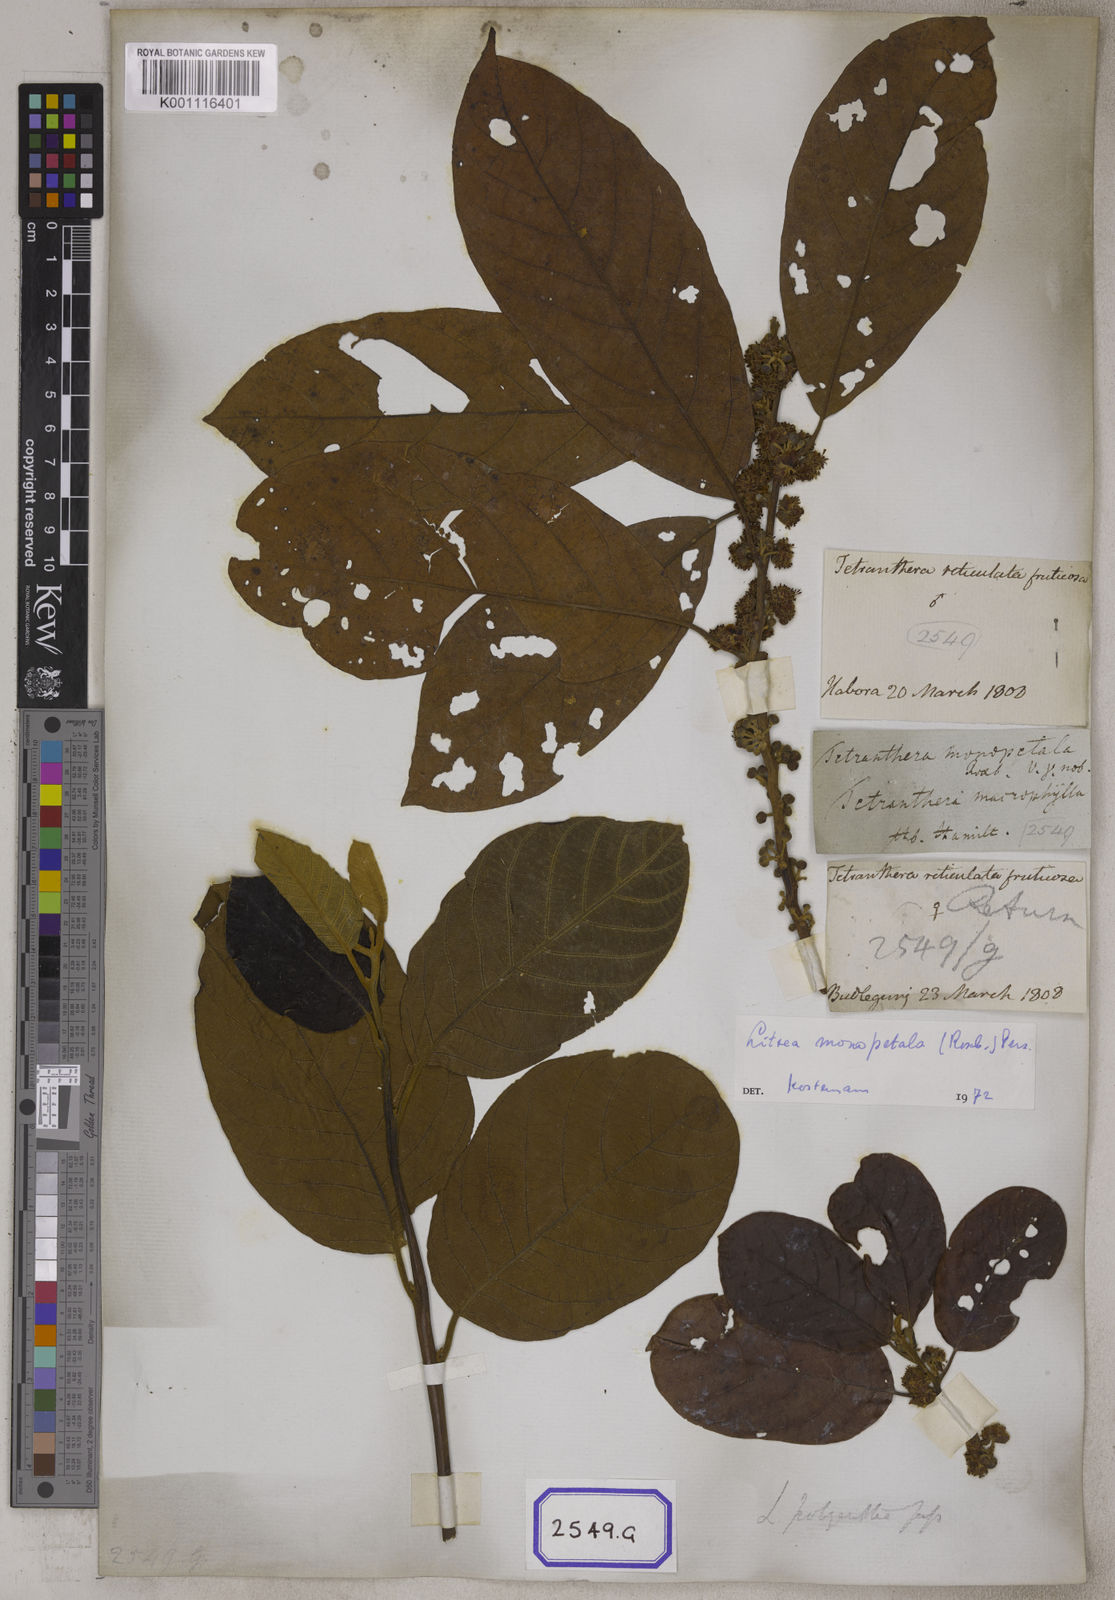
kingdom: Plantae
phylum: Tracheophyta
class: Magnoliopsida
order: Laurales
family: Lauraceae
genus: Litsea
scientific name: Litsea
